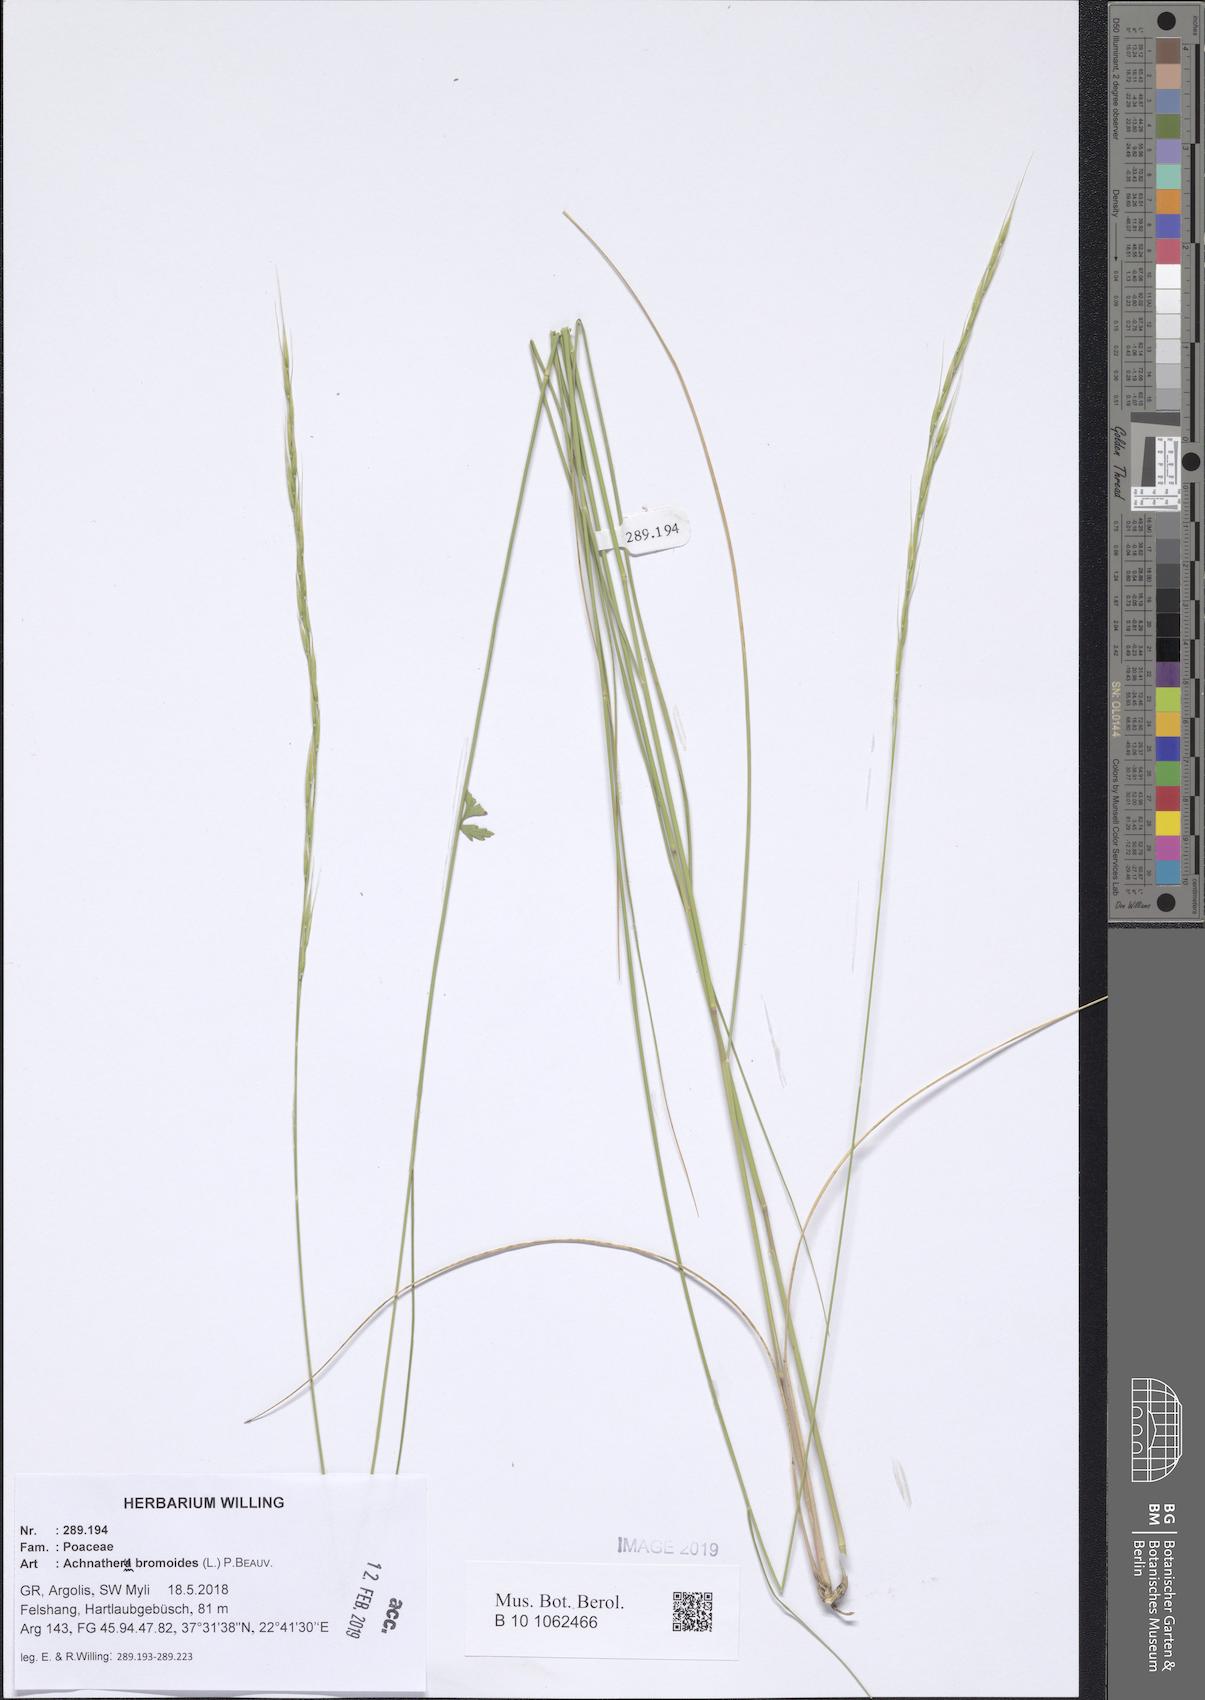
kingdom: Plantae
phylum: Tracheophyta
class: Liliopsida
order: Poales
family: Poaceae
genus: Achnatherum
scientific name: Achnatherum bromoides
